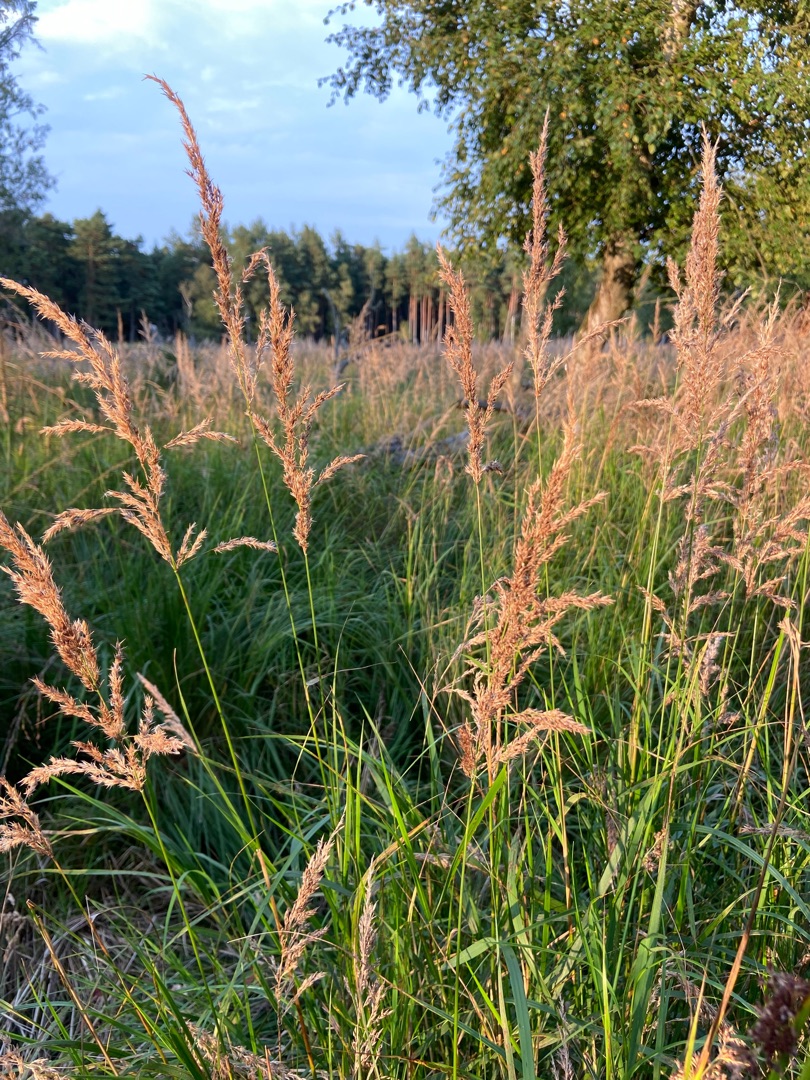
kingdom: Plantae
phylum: Tracheophyta
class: Liliopsida
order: Poales
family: Poaceae
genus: Calamagrostis
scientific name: Calamagrostis canescens
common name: Eng-rørhvene
